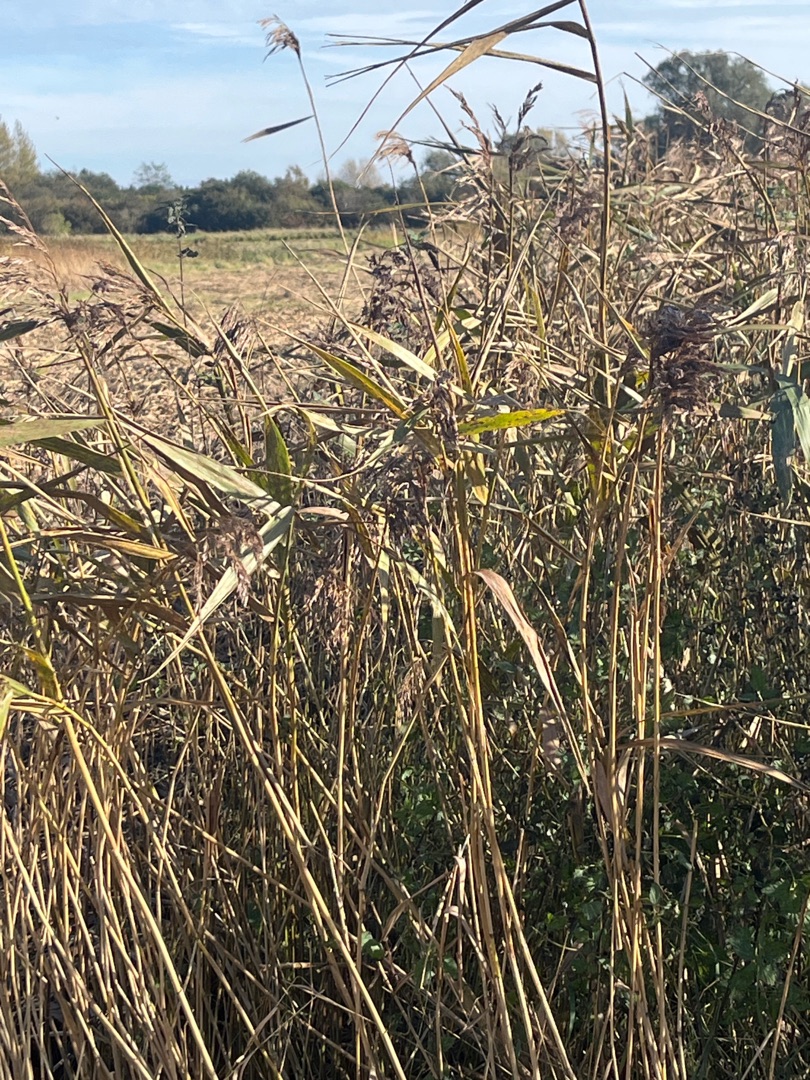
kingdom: Plantae
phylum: Tracheophyta
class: Liliopsida
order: Poales
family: Poaceae
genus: Phragmites
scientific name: Phragmites australis
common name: Tagrør
